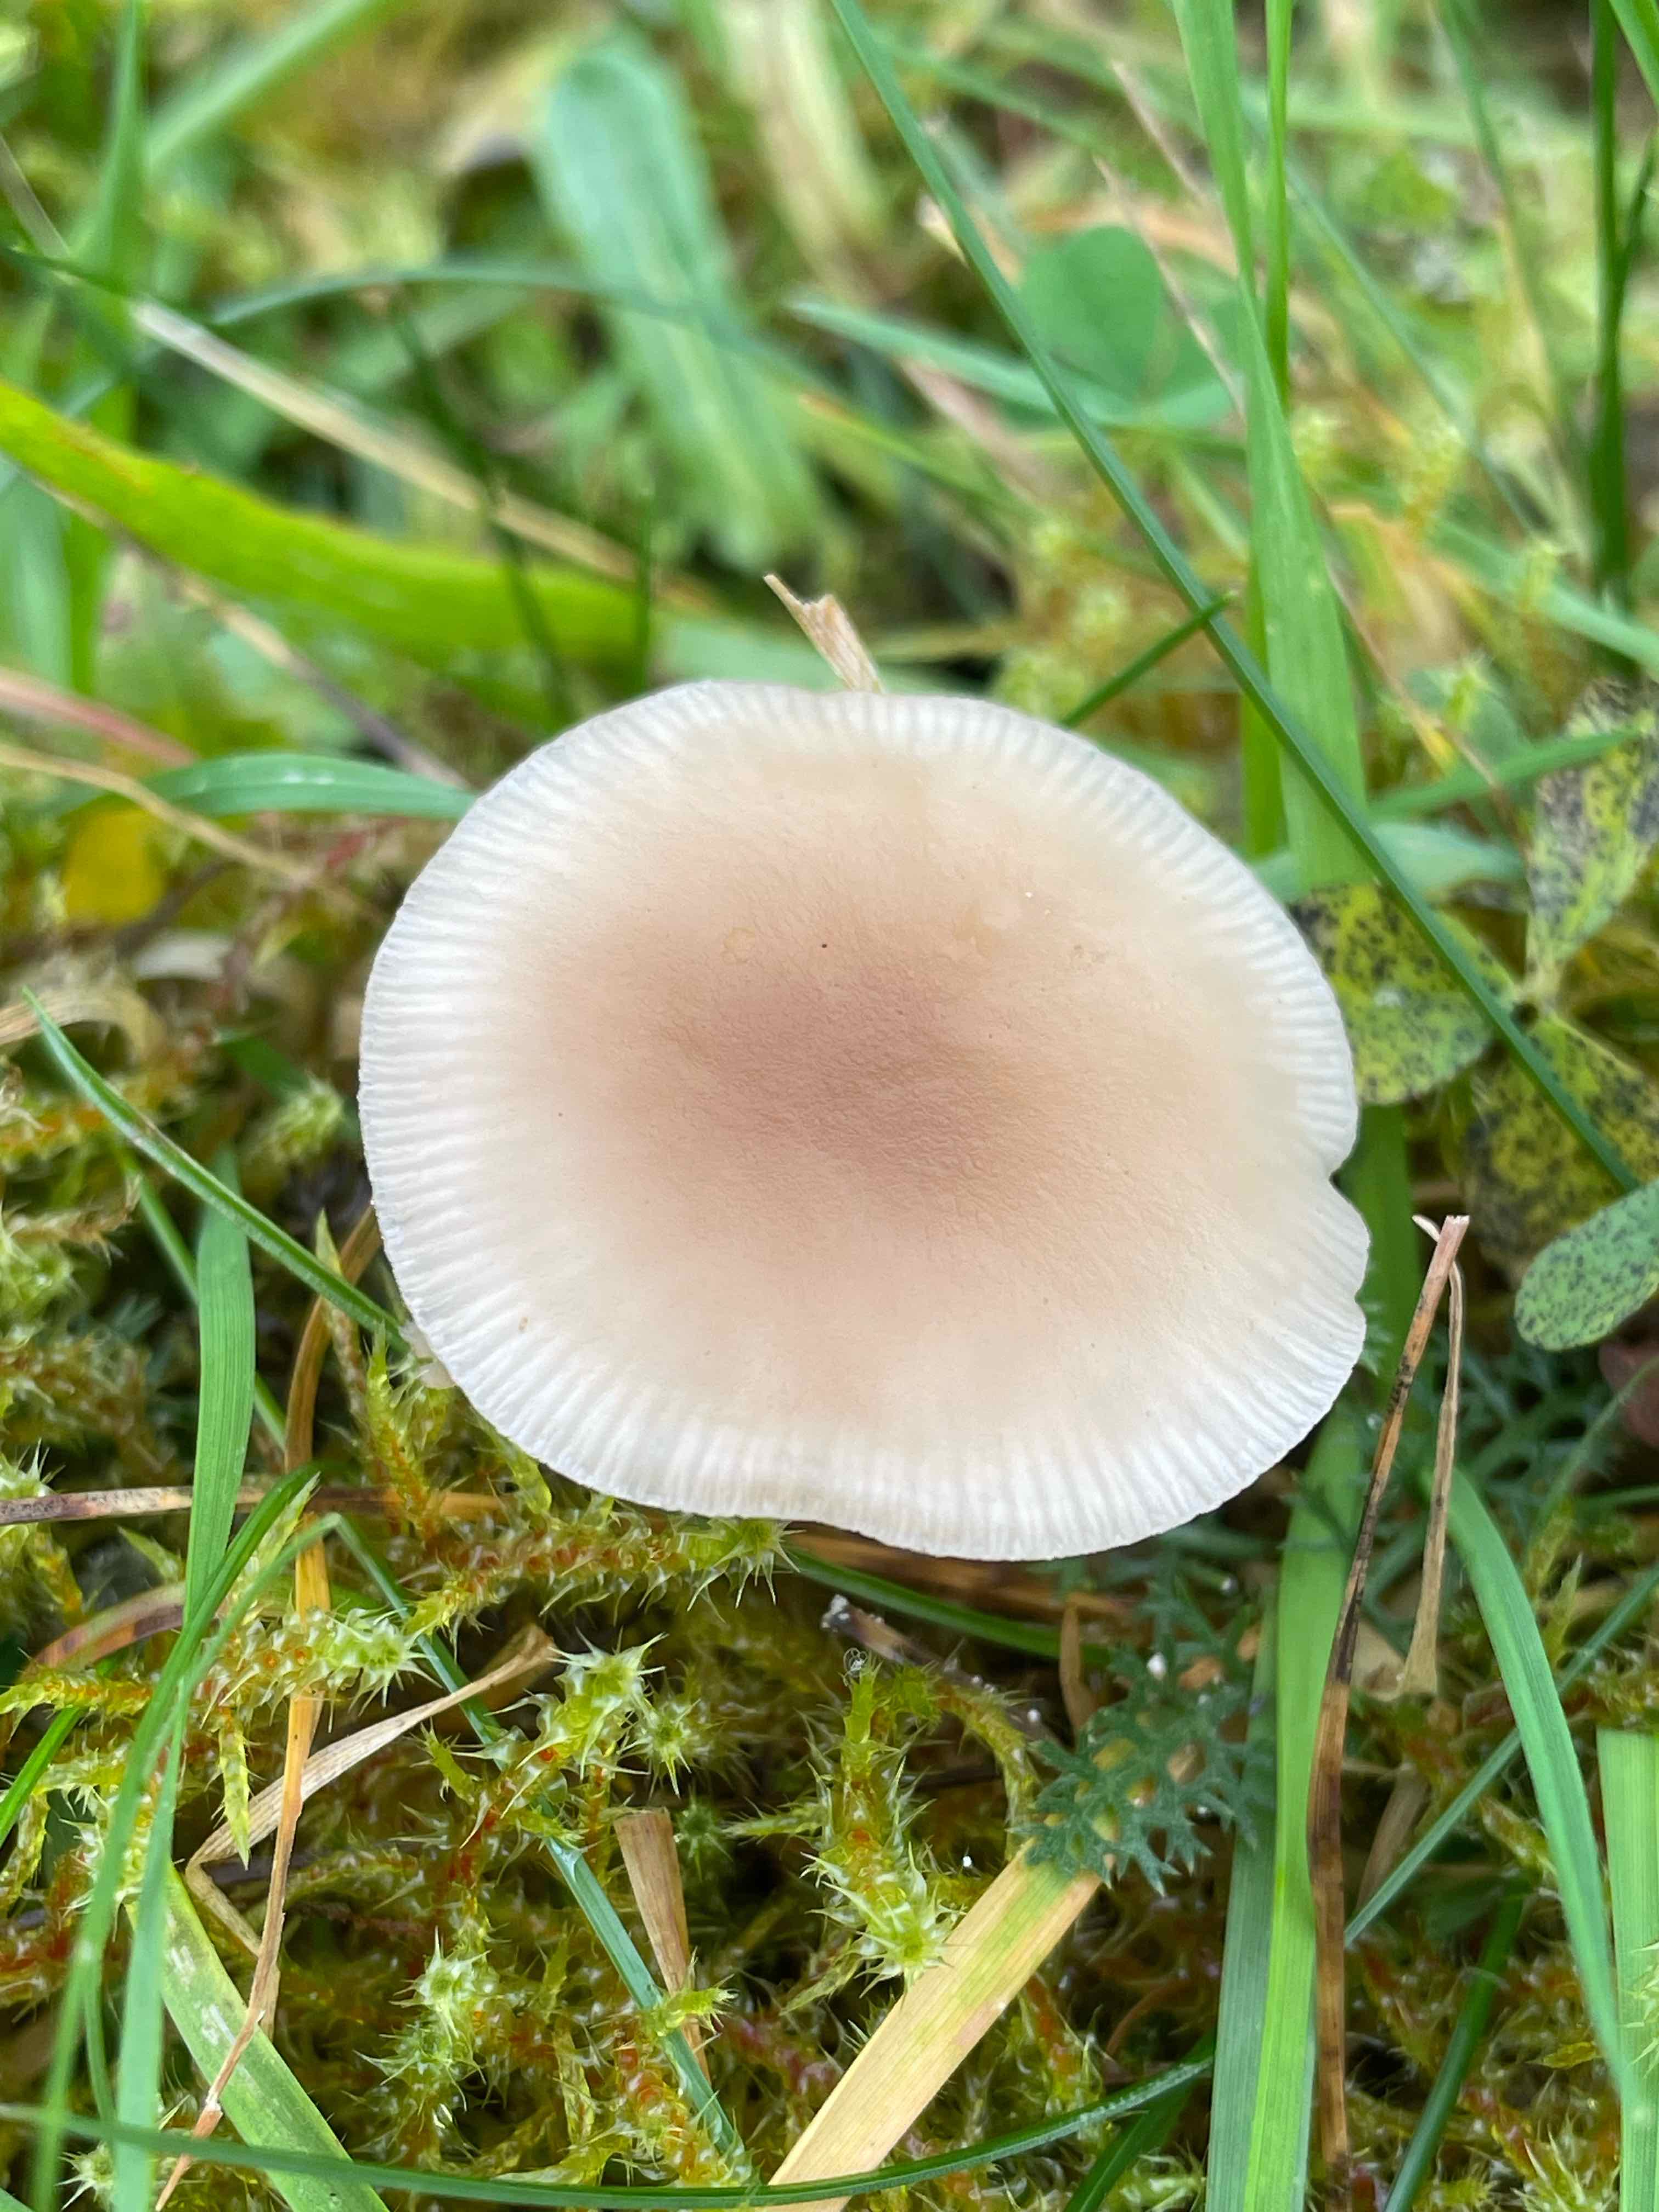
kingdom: Fungi
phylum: Basidiomycota
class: Agaricomycetes
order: Agaricales
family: Tricholomataceae
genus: Clitocybe
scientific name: Clitocybe fragrans
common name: vellugtende tragthat
